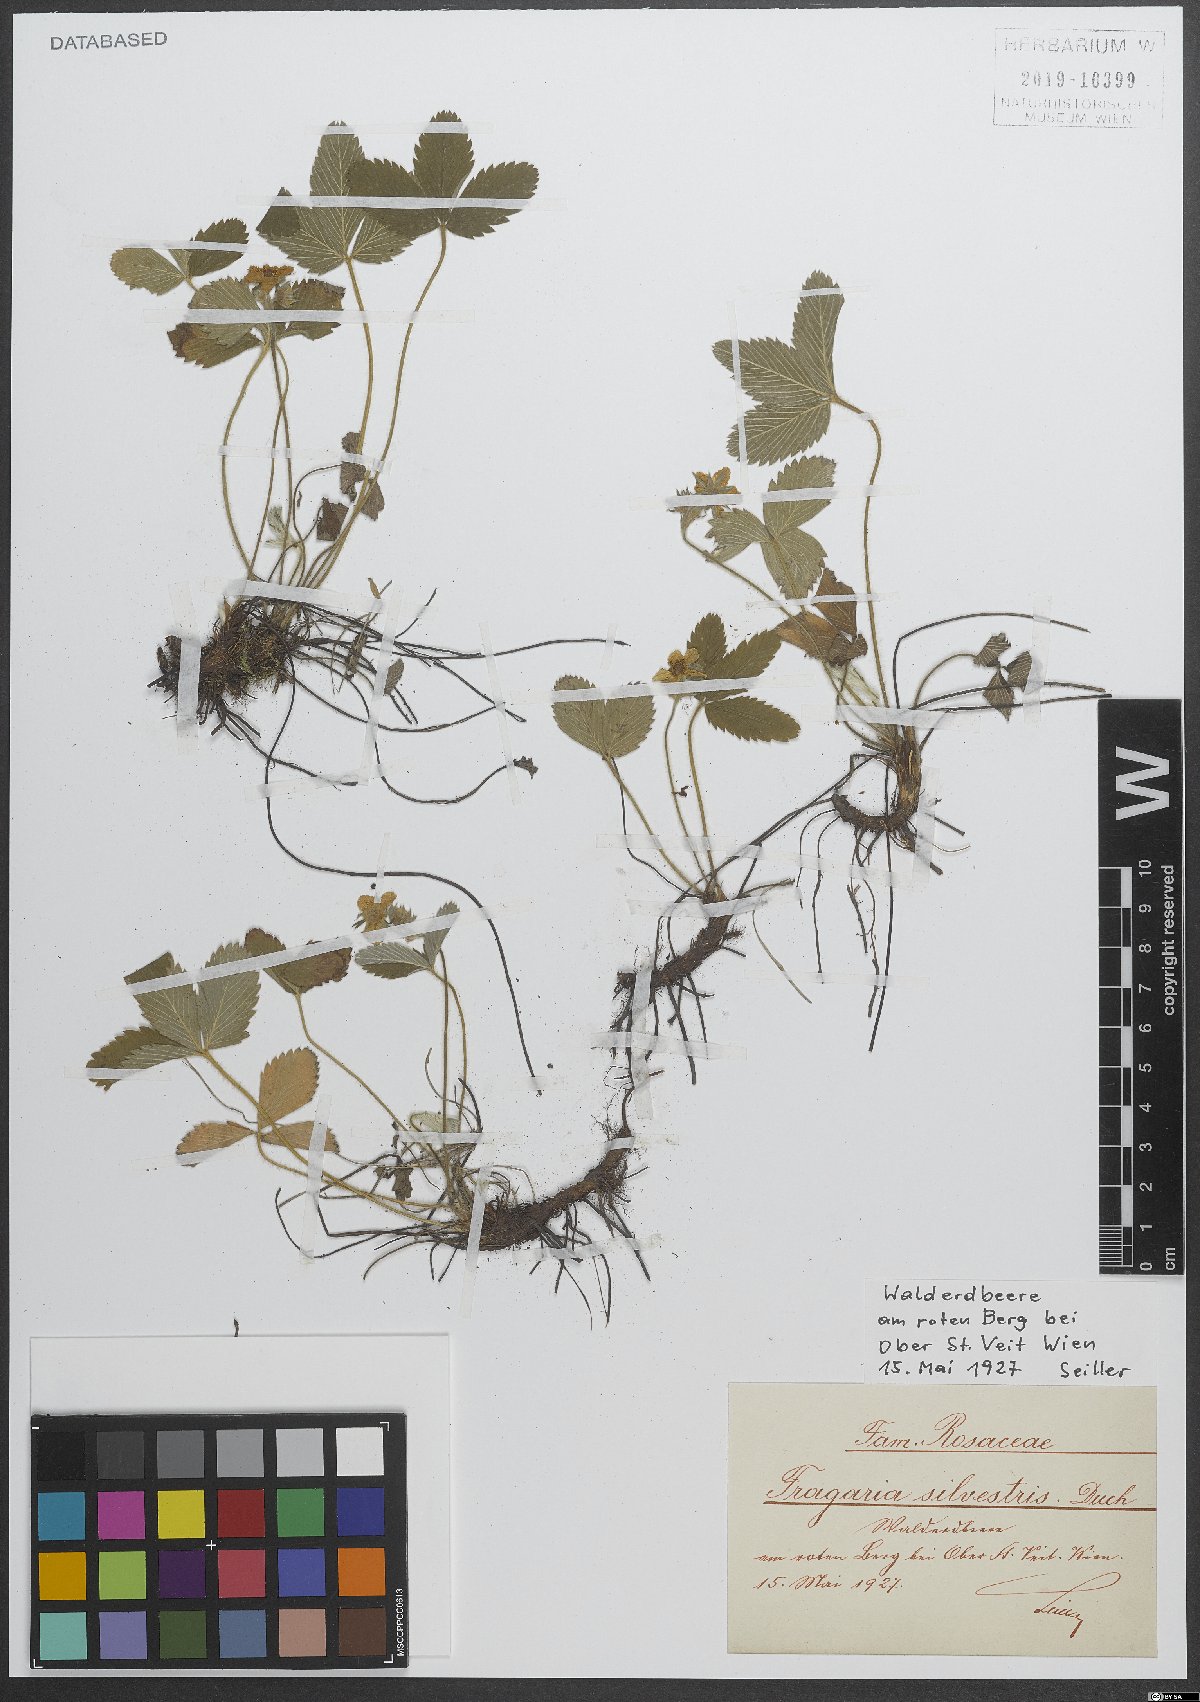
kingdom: Plantae
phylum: Tracheophyta
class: Magnoliopsida
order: Rosales
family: Rosaceae
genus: Fragaria
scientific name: Fragaria vesca
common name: Wild strawberry
